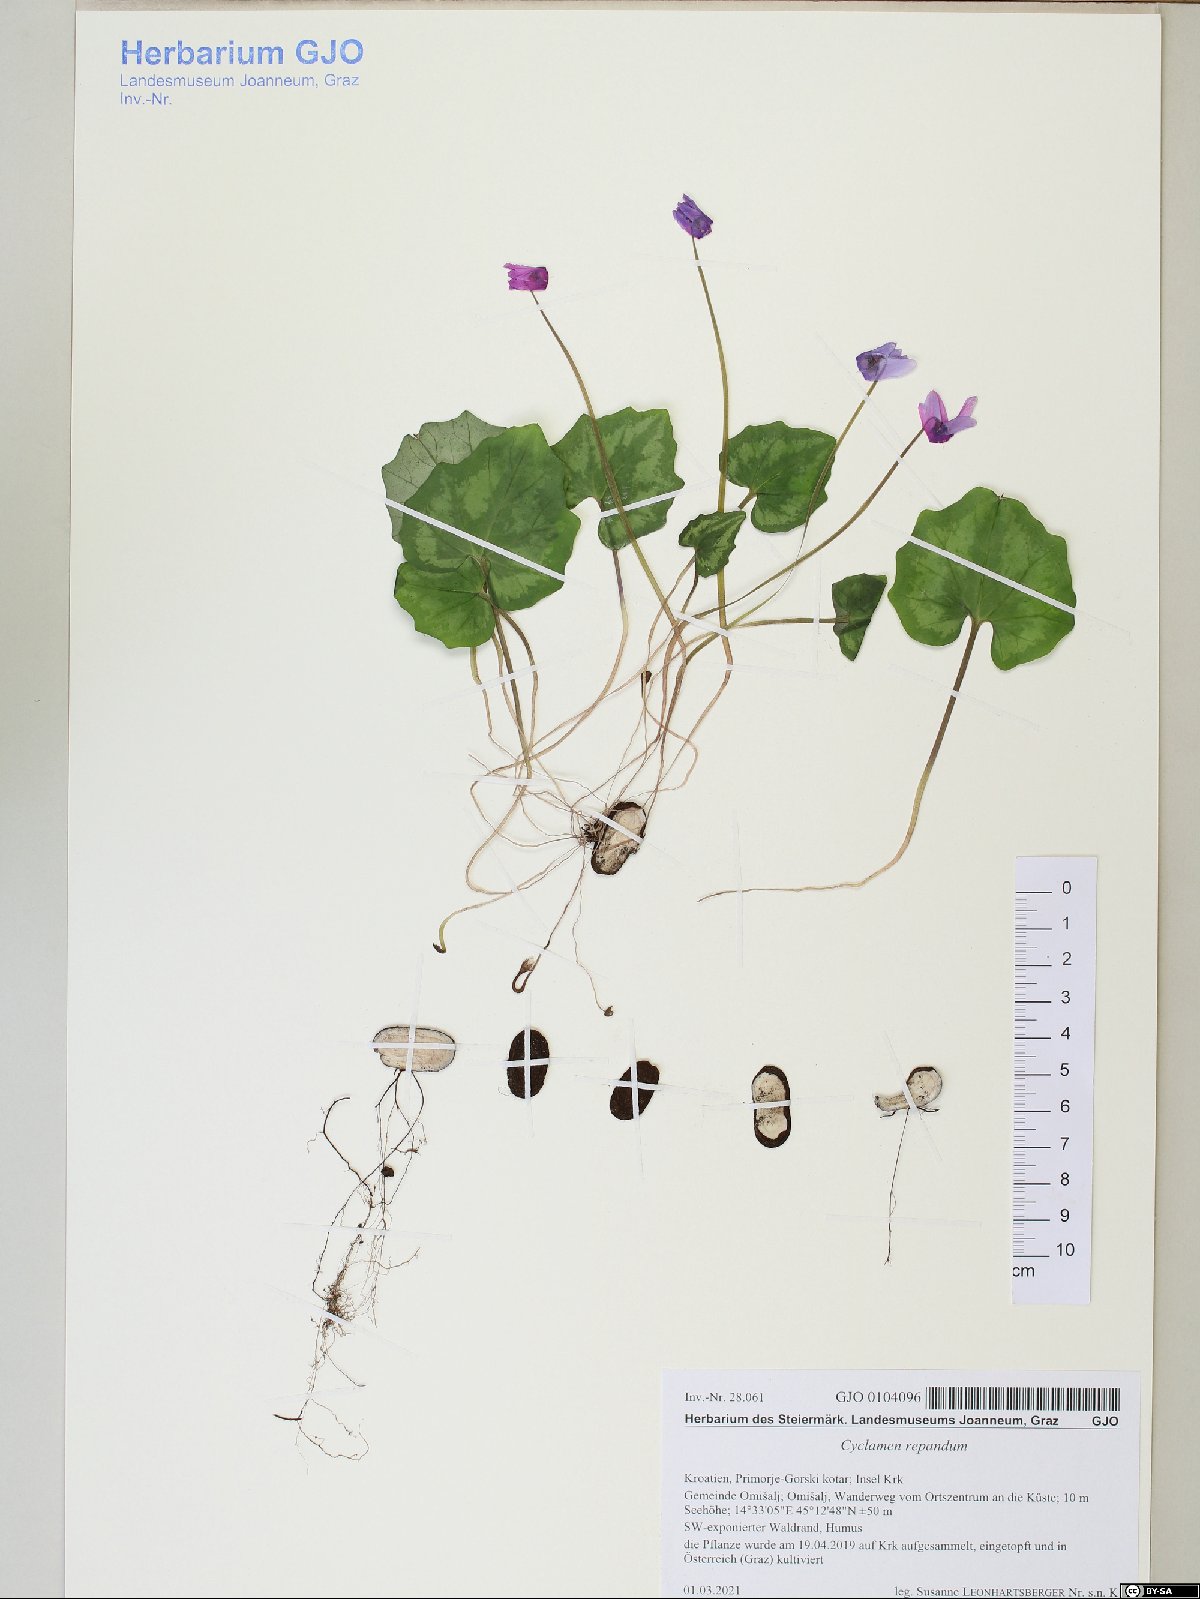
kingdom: Plantae
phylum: Tracheophyta
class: Magnoliopsida
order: Ericales
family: Primulaceae
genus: Cyclamen
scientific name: Cyclamen repandum
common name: Spring sowbread
